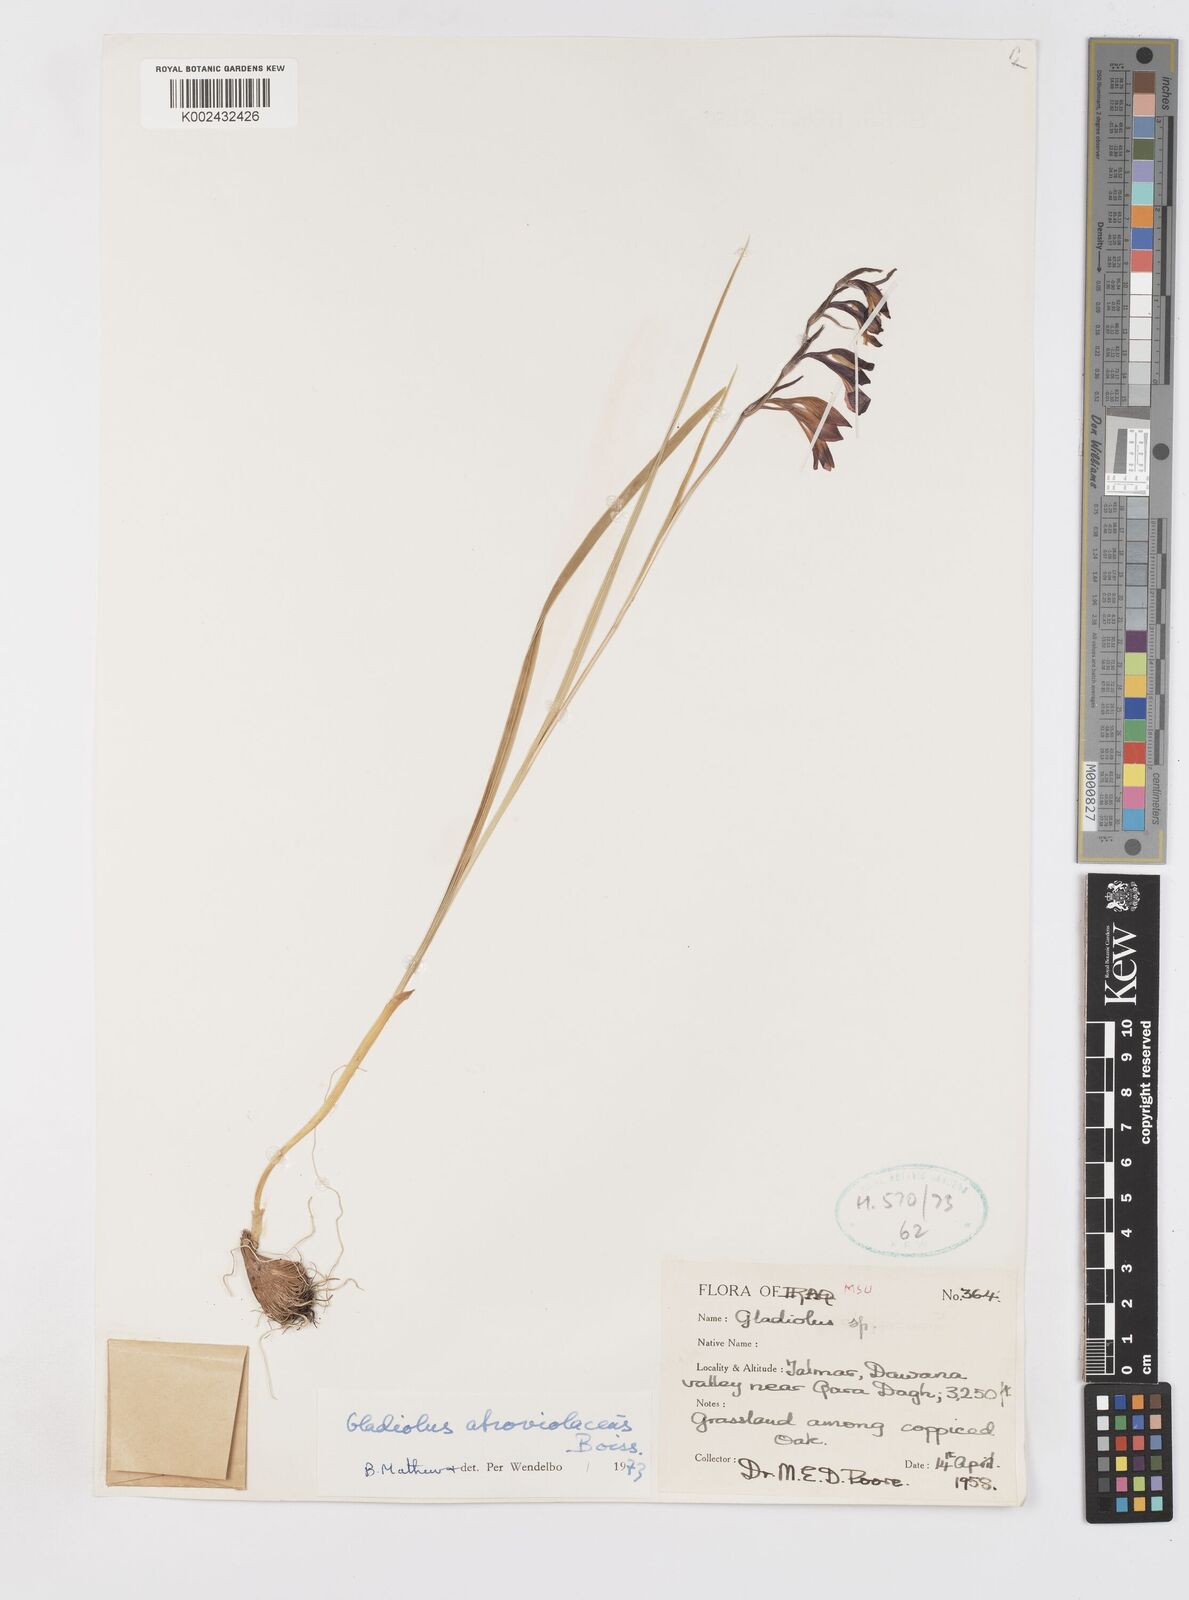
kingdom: Plantae
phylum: Tracheophyta
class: Liliopsida
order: Asparagales
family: Iridaceae
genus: Gladiolus
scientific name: Gladiolus atroviolaceus
